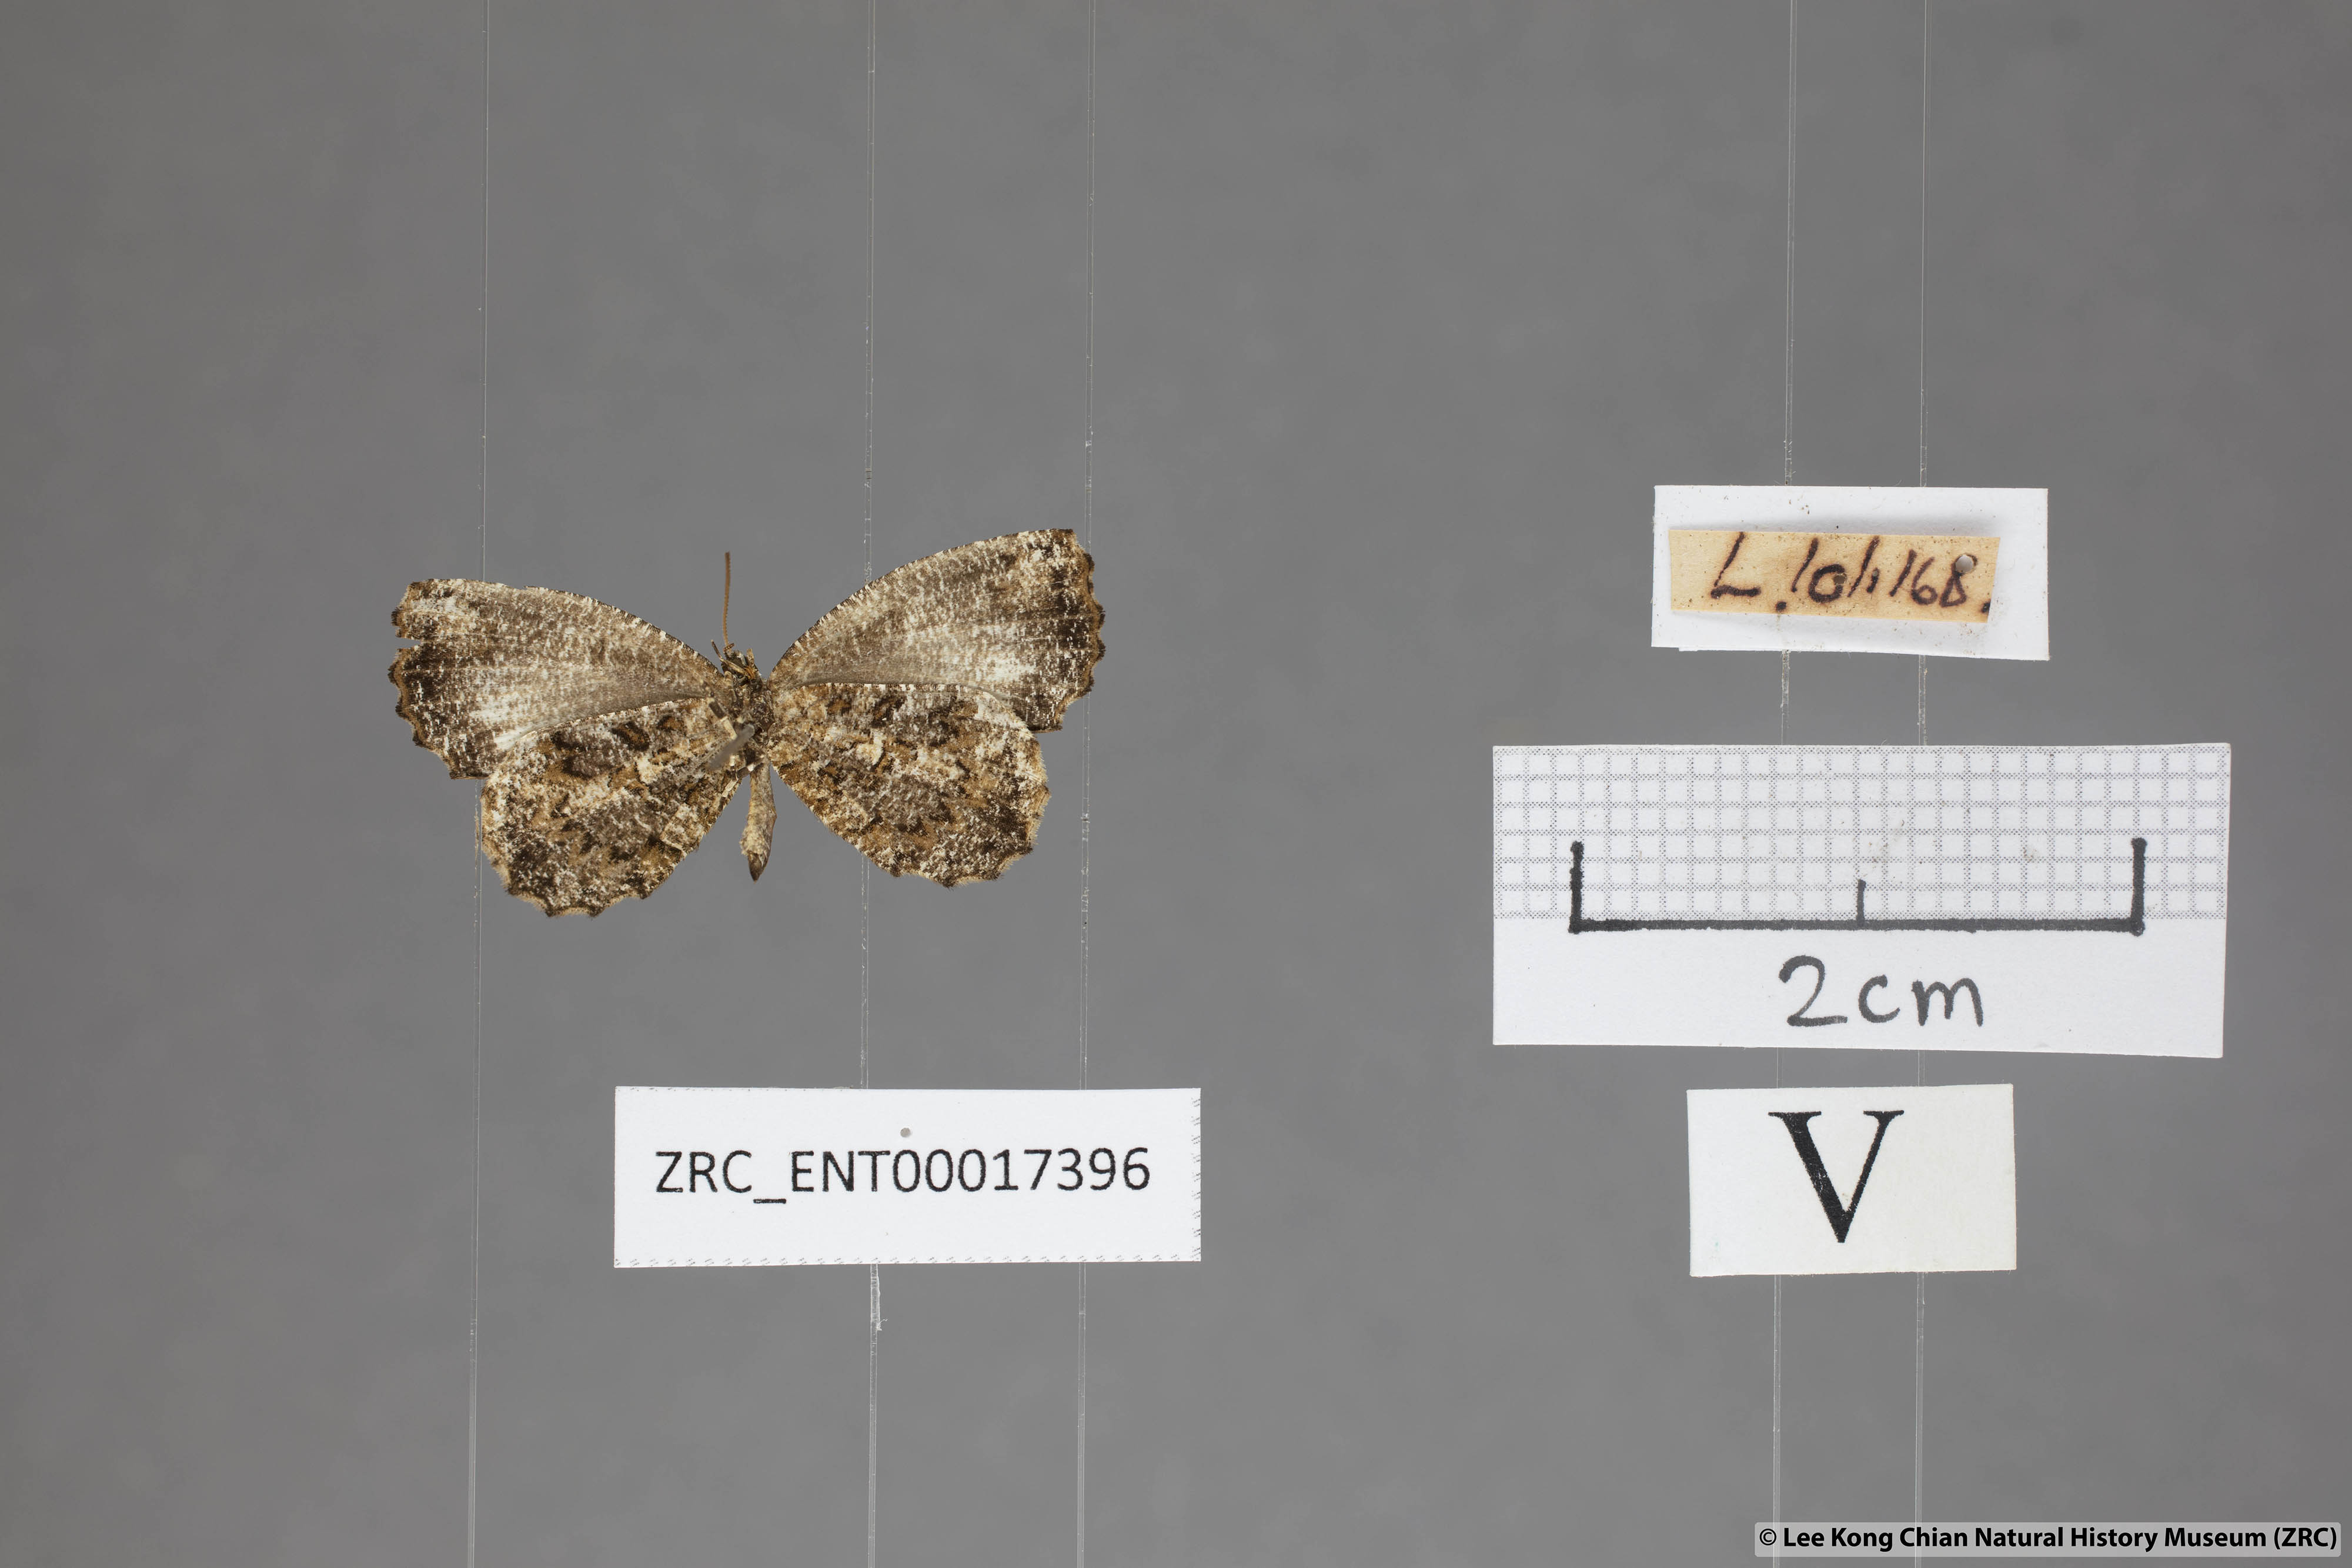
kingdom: Animalia
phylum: Arthropoda
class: Insecta
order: Lepidoptera
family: Lycaenidae
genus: Logania
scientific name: Logania marmorata
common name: Pale mottle
